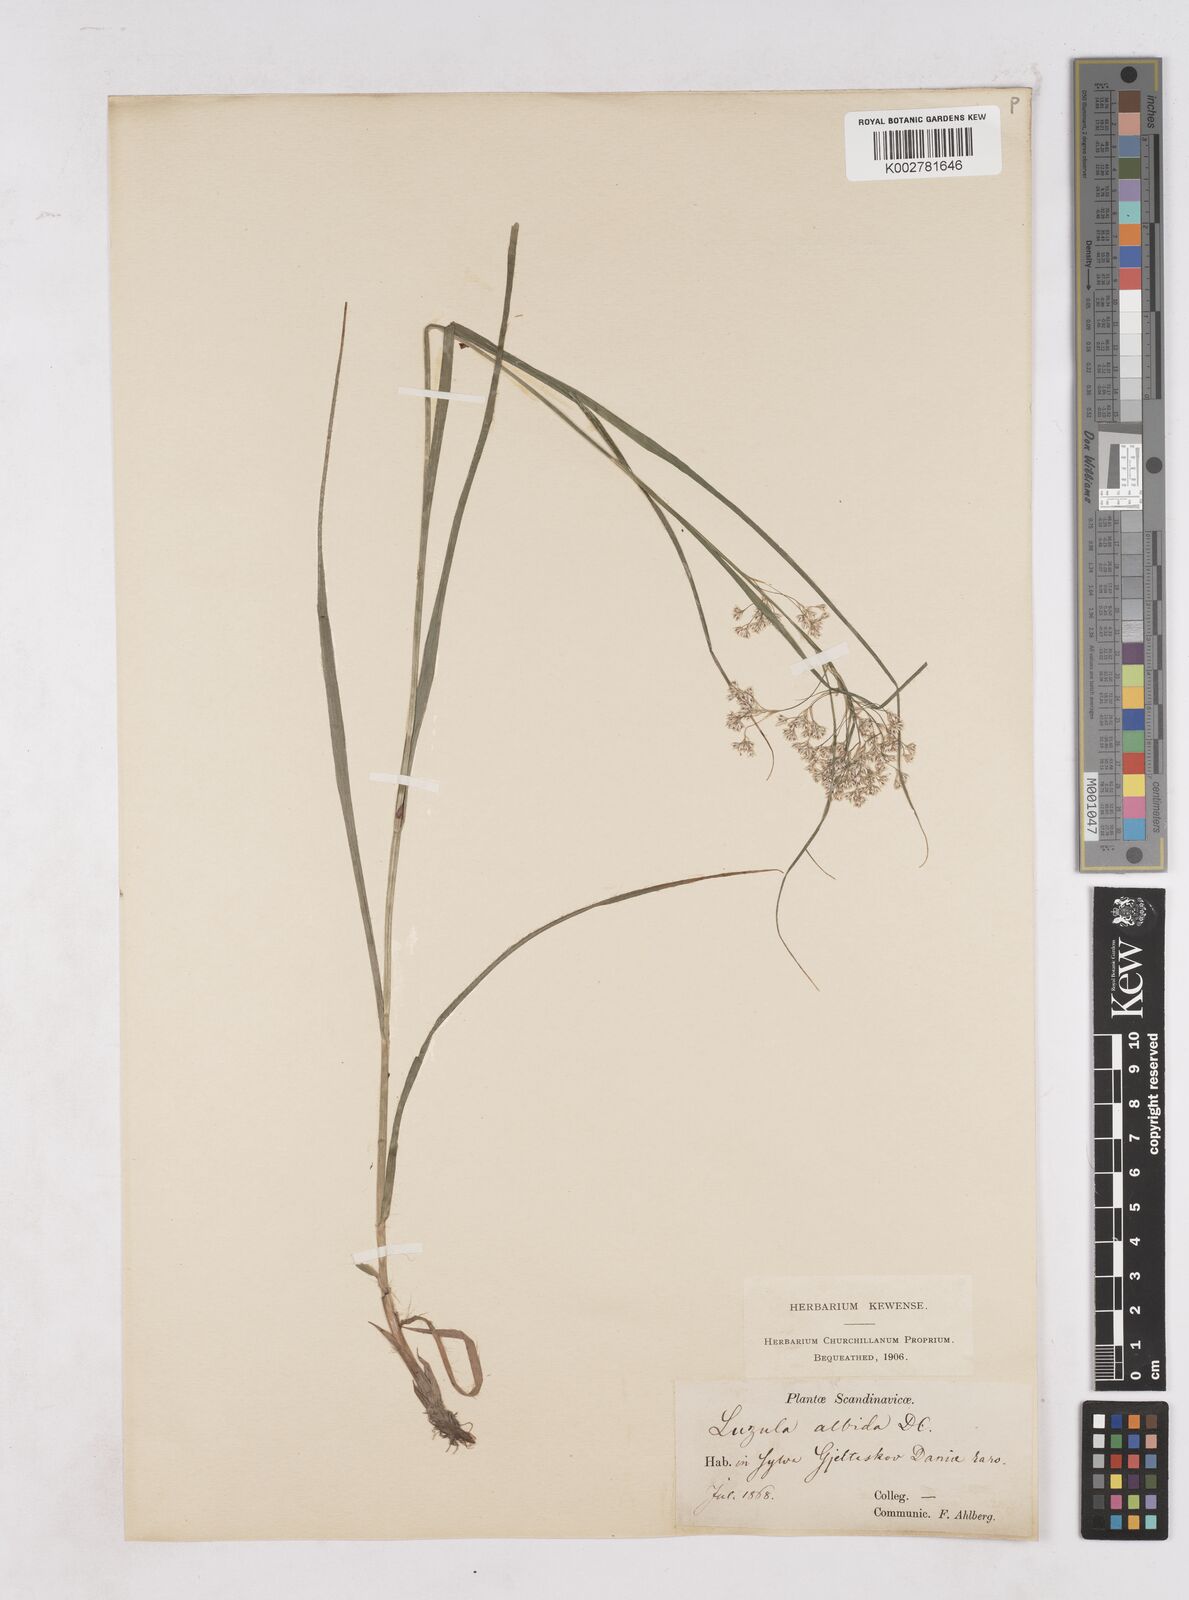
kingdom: Plantae
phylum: Tracheophyta
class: Liliopsida
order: Poales
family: Juncaceae
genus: Luzula
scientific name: Luzula luzuloides
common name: White wood-rush
